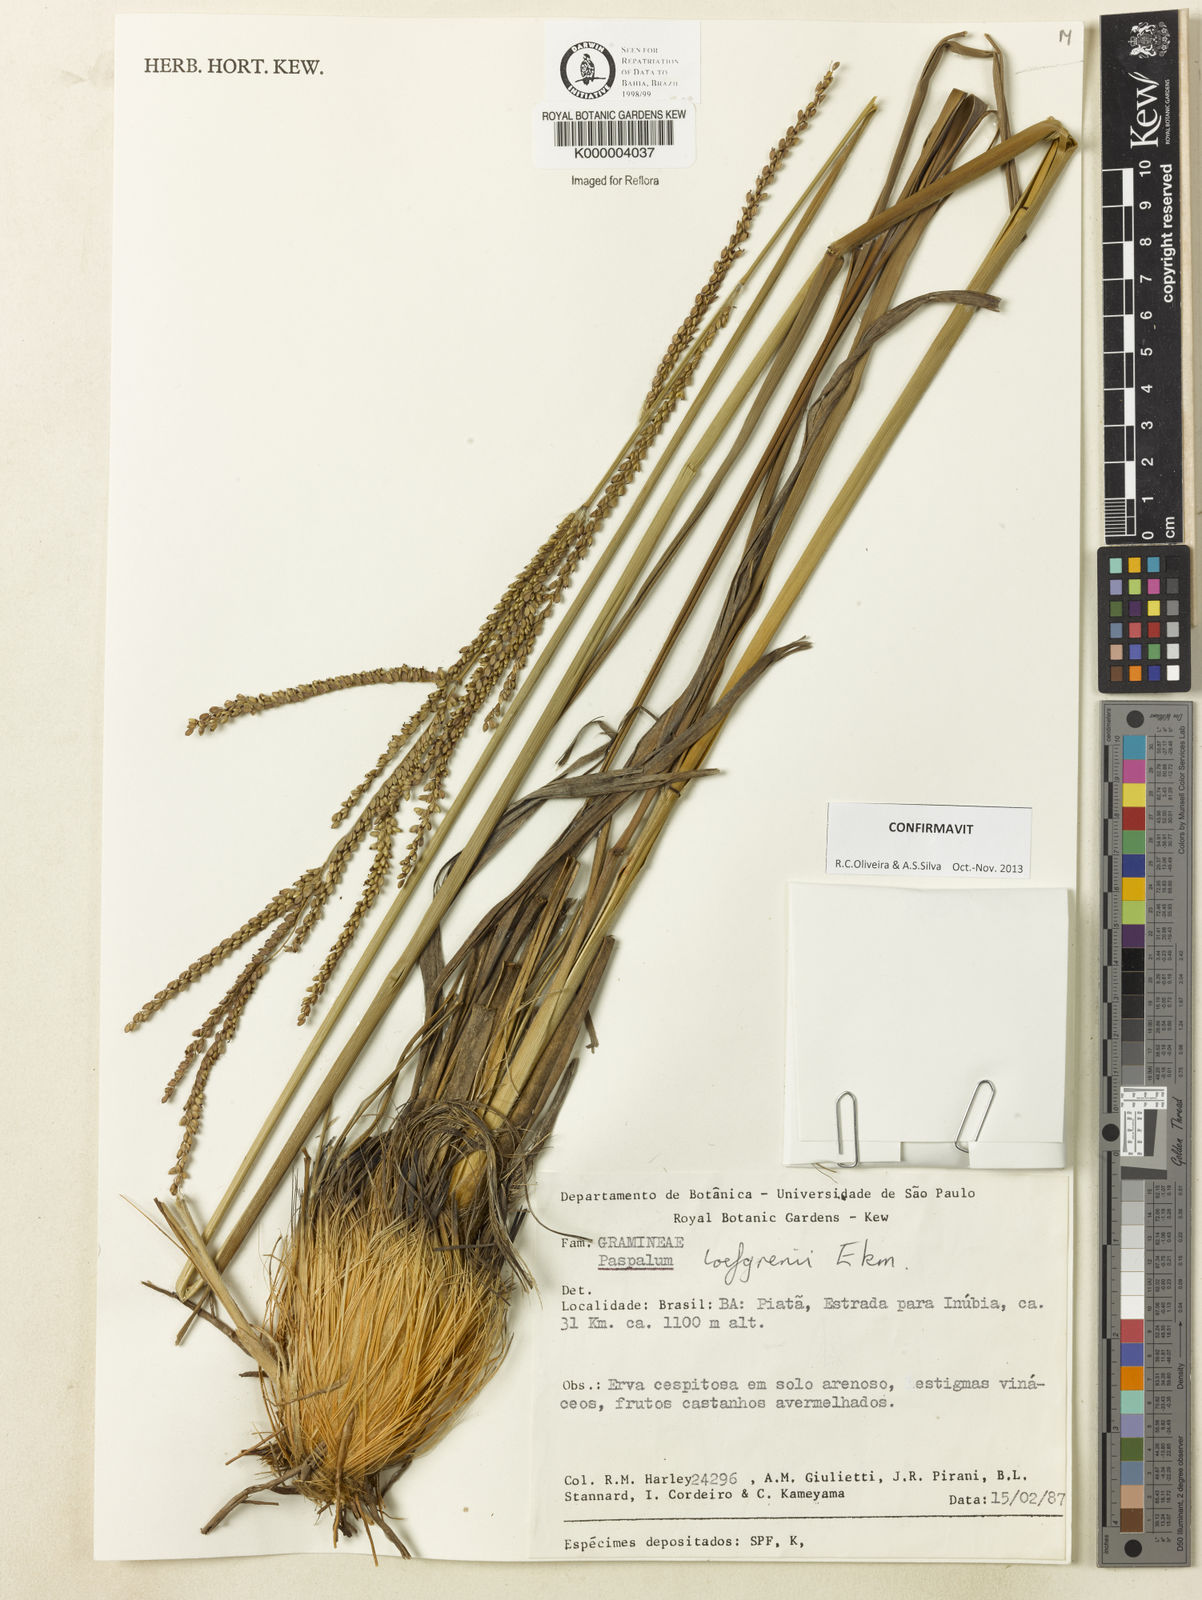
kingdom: Plantae
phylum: Tracheophyta
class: Liliopsida
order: Poales
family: Poaceae
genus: Paspalum
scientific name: Paspalum loefgrenii
